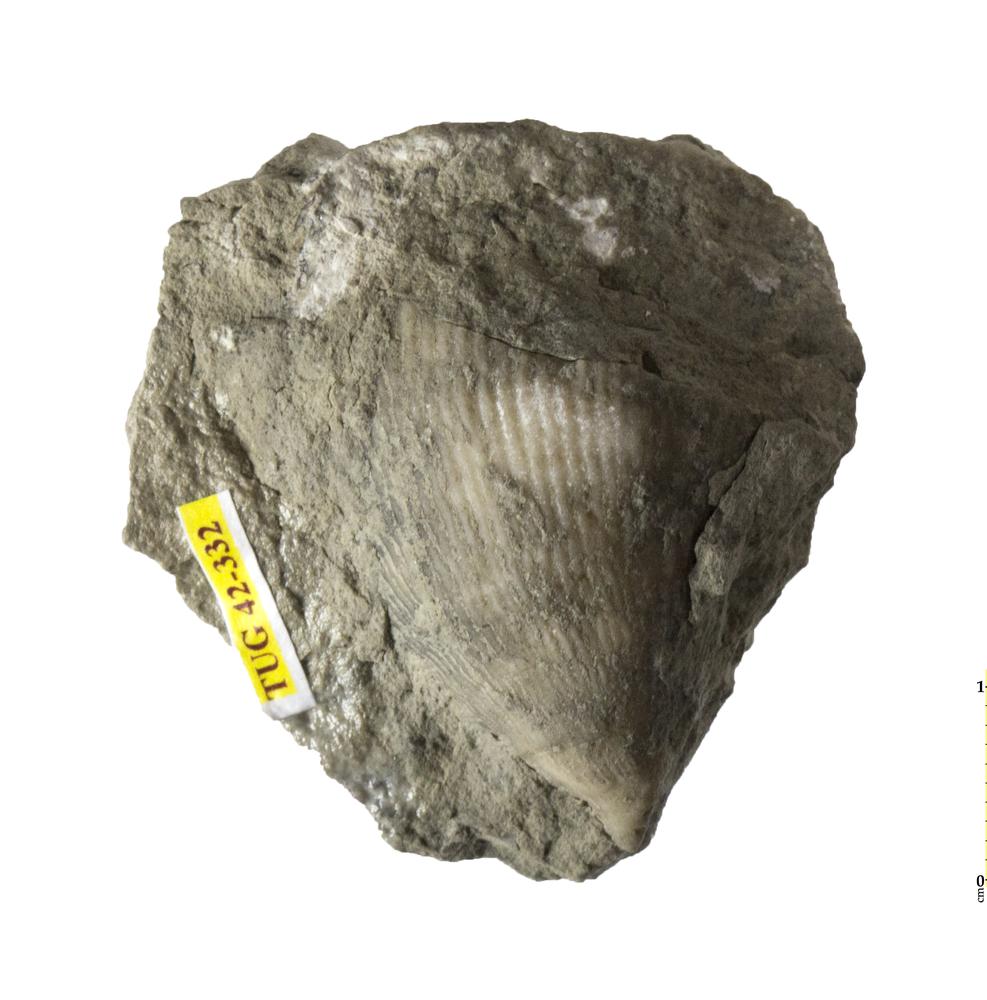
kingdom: Animalia
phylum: Cnidaria
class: Anthozoa
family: Streptelasmatidae
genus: Streptelasma
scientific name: Streptelasma corniculum
